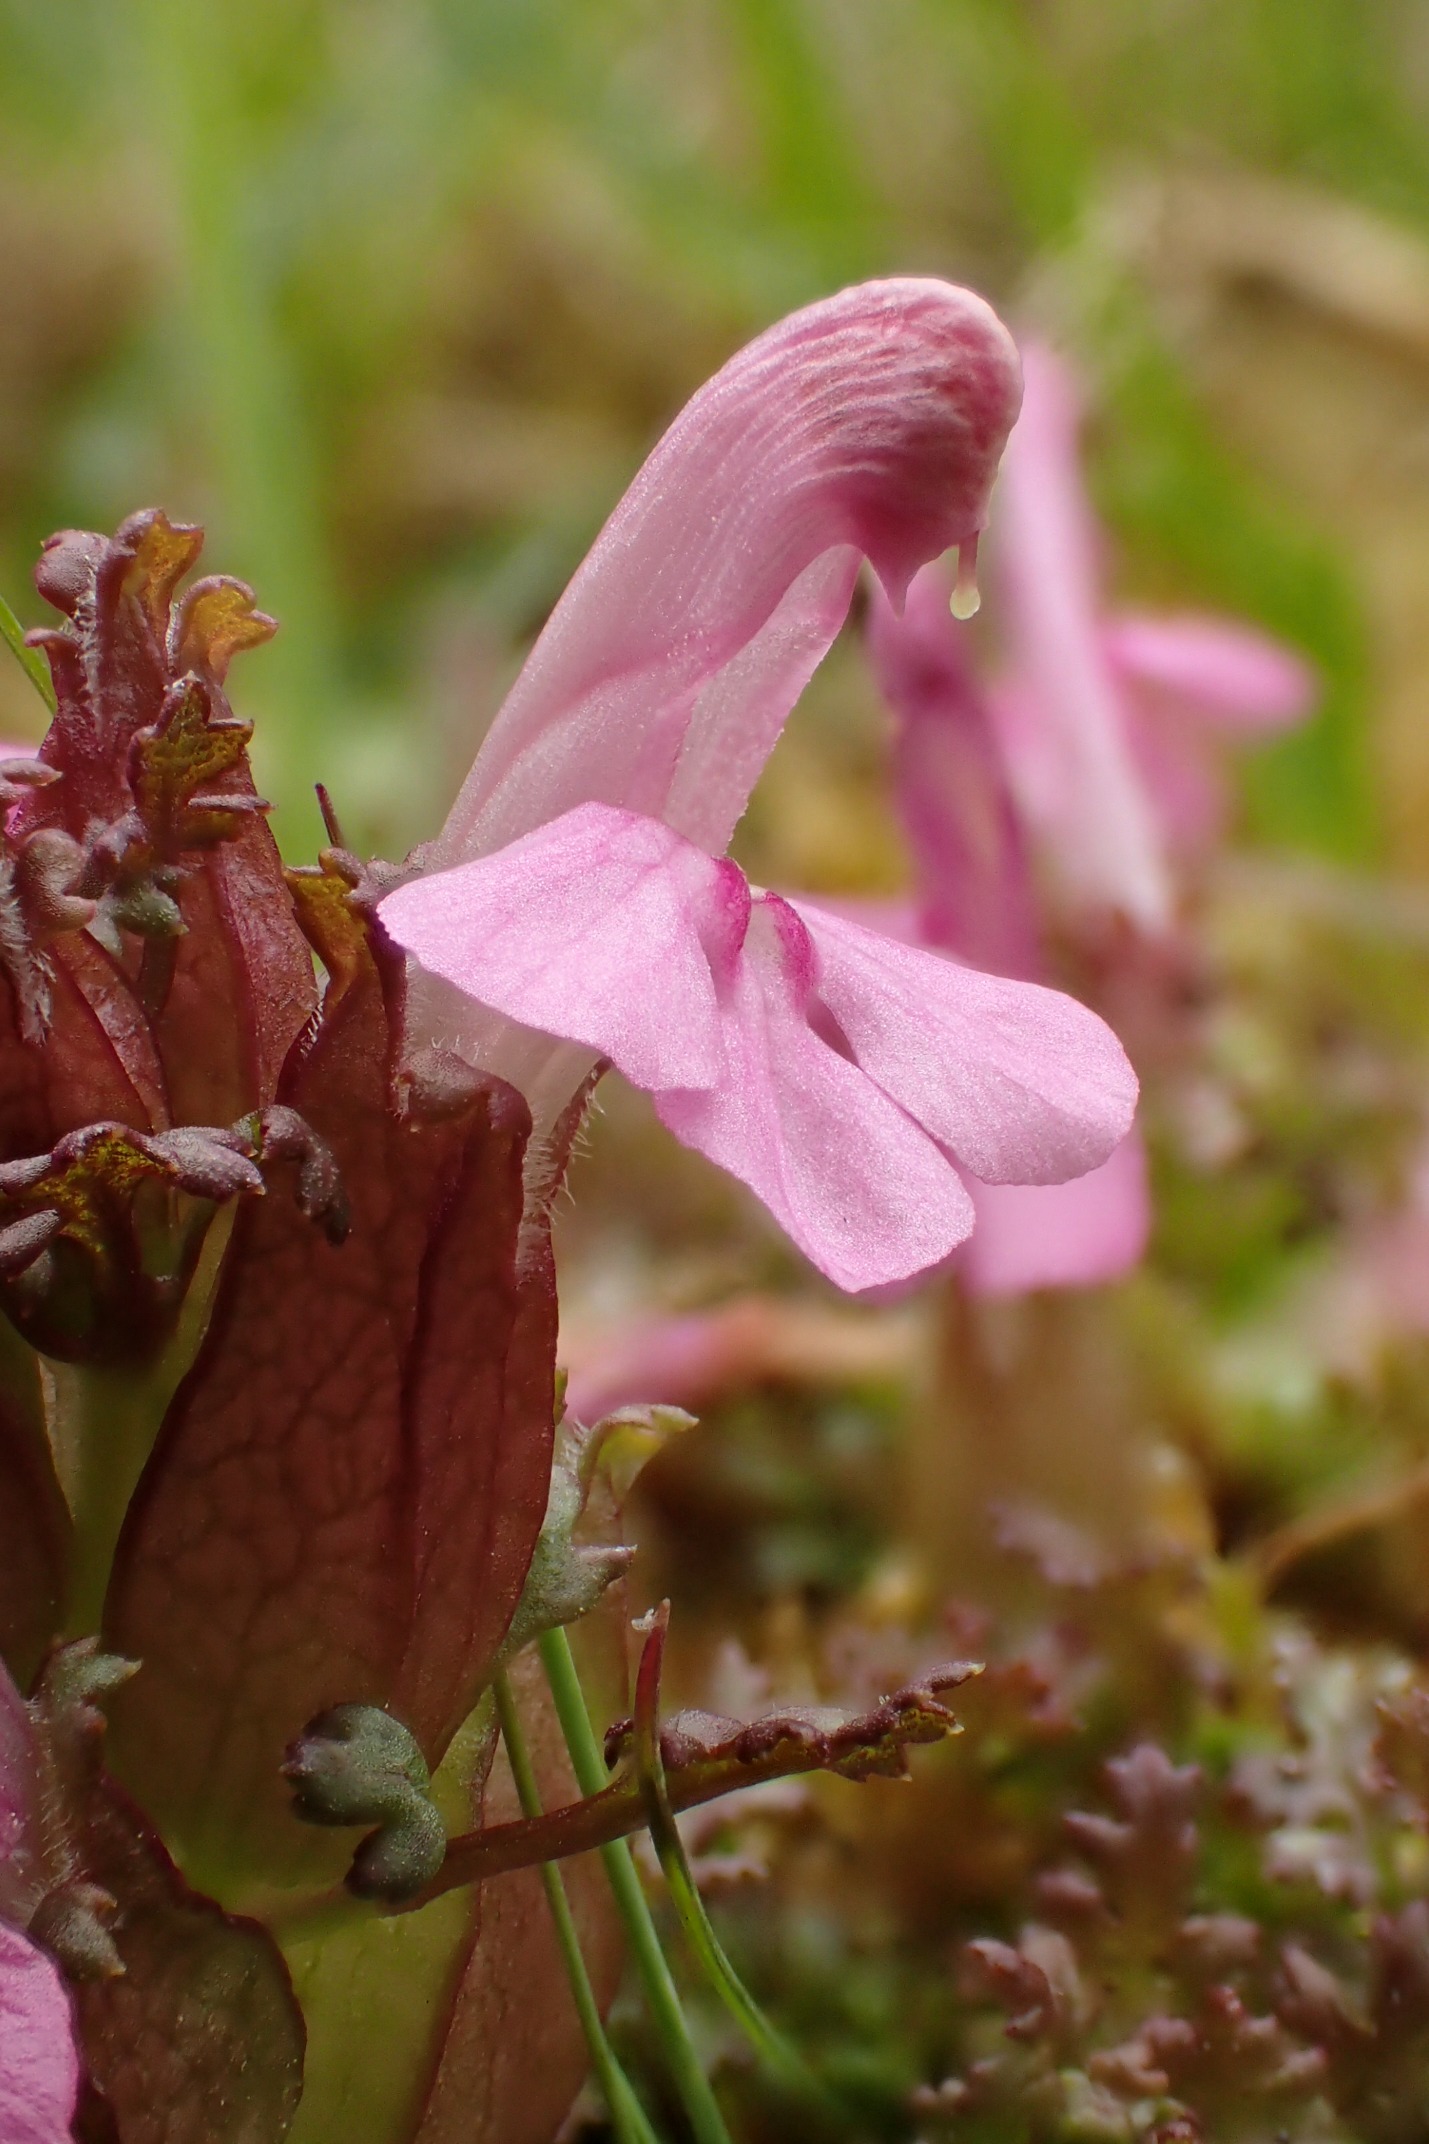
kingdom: Plantae
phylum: Tracheophyta
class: Magnoliopsida
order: Lamiales
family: Orobanchaceae
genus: Pedicularis
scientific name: Pedicularis sylvatica
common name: Mose-troldurt
